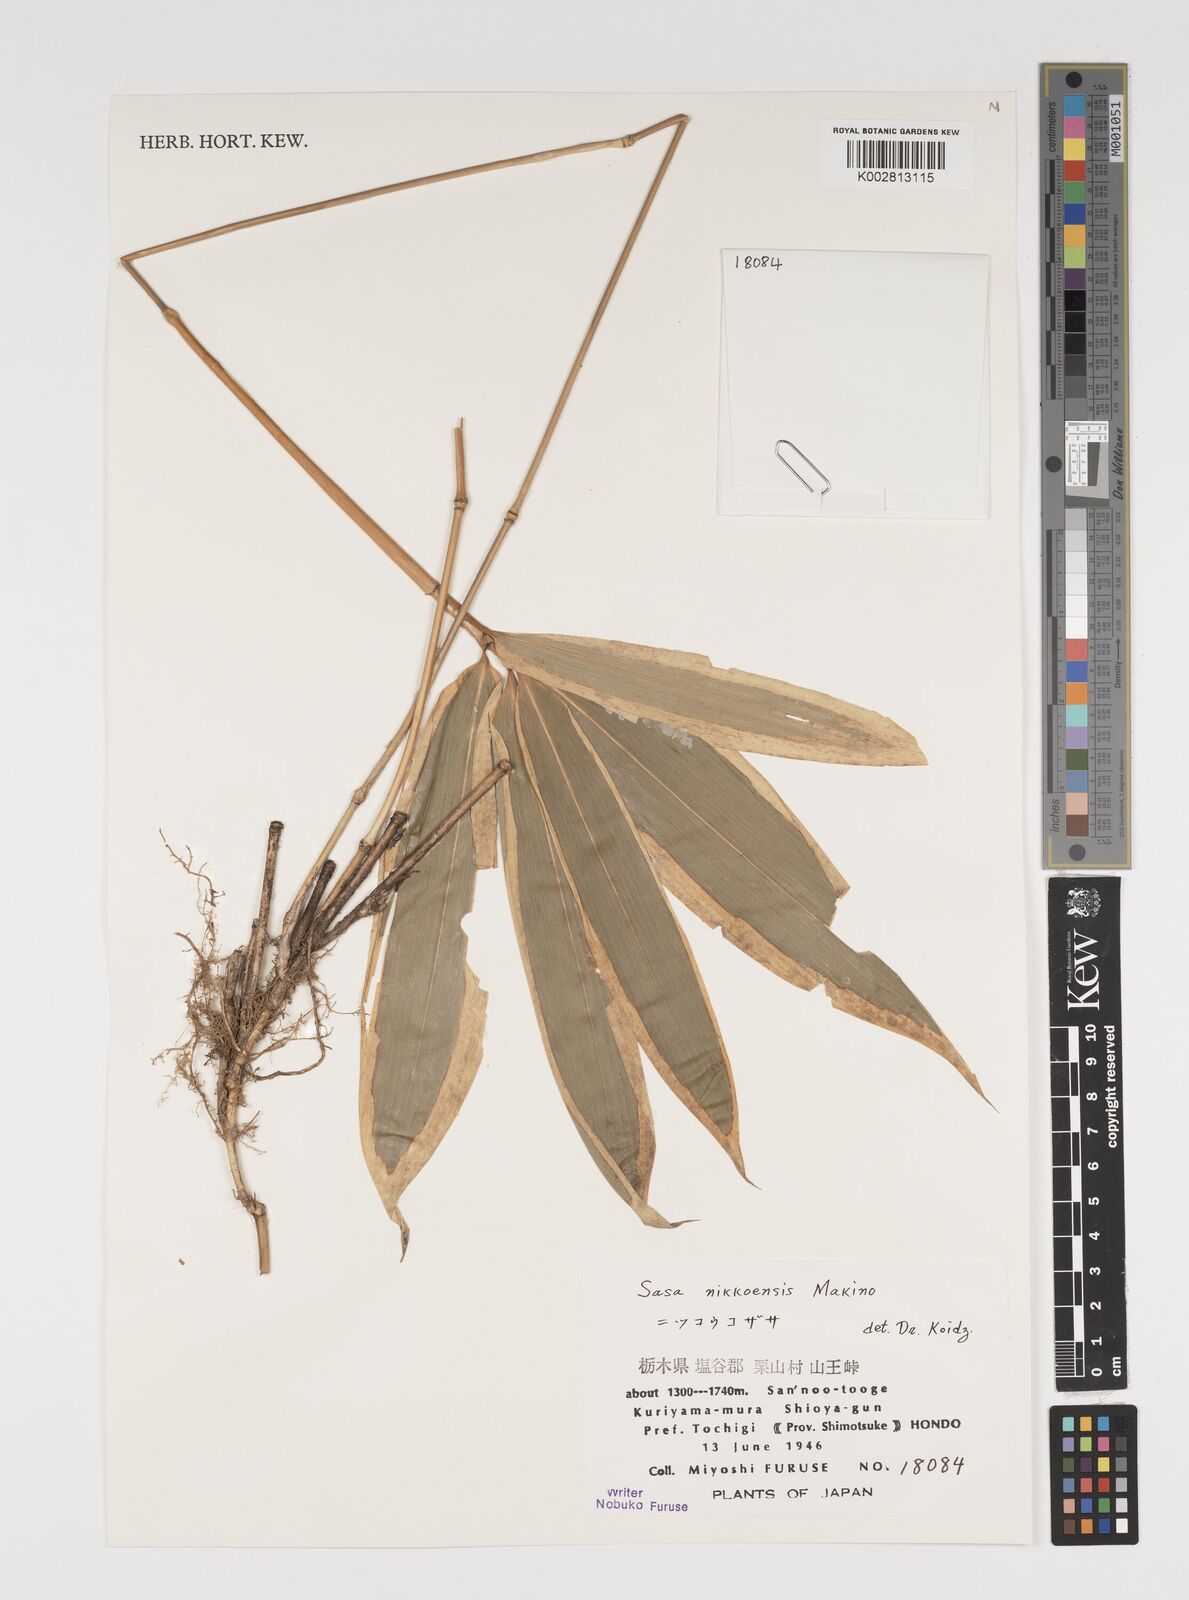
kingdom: Plantae
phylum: Tracheophyta
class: Liliopsida
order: Poales
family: Poaceae
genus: Sasa
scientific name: Sasa chartacea
